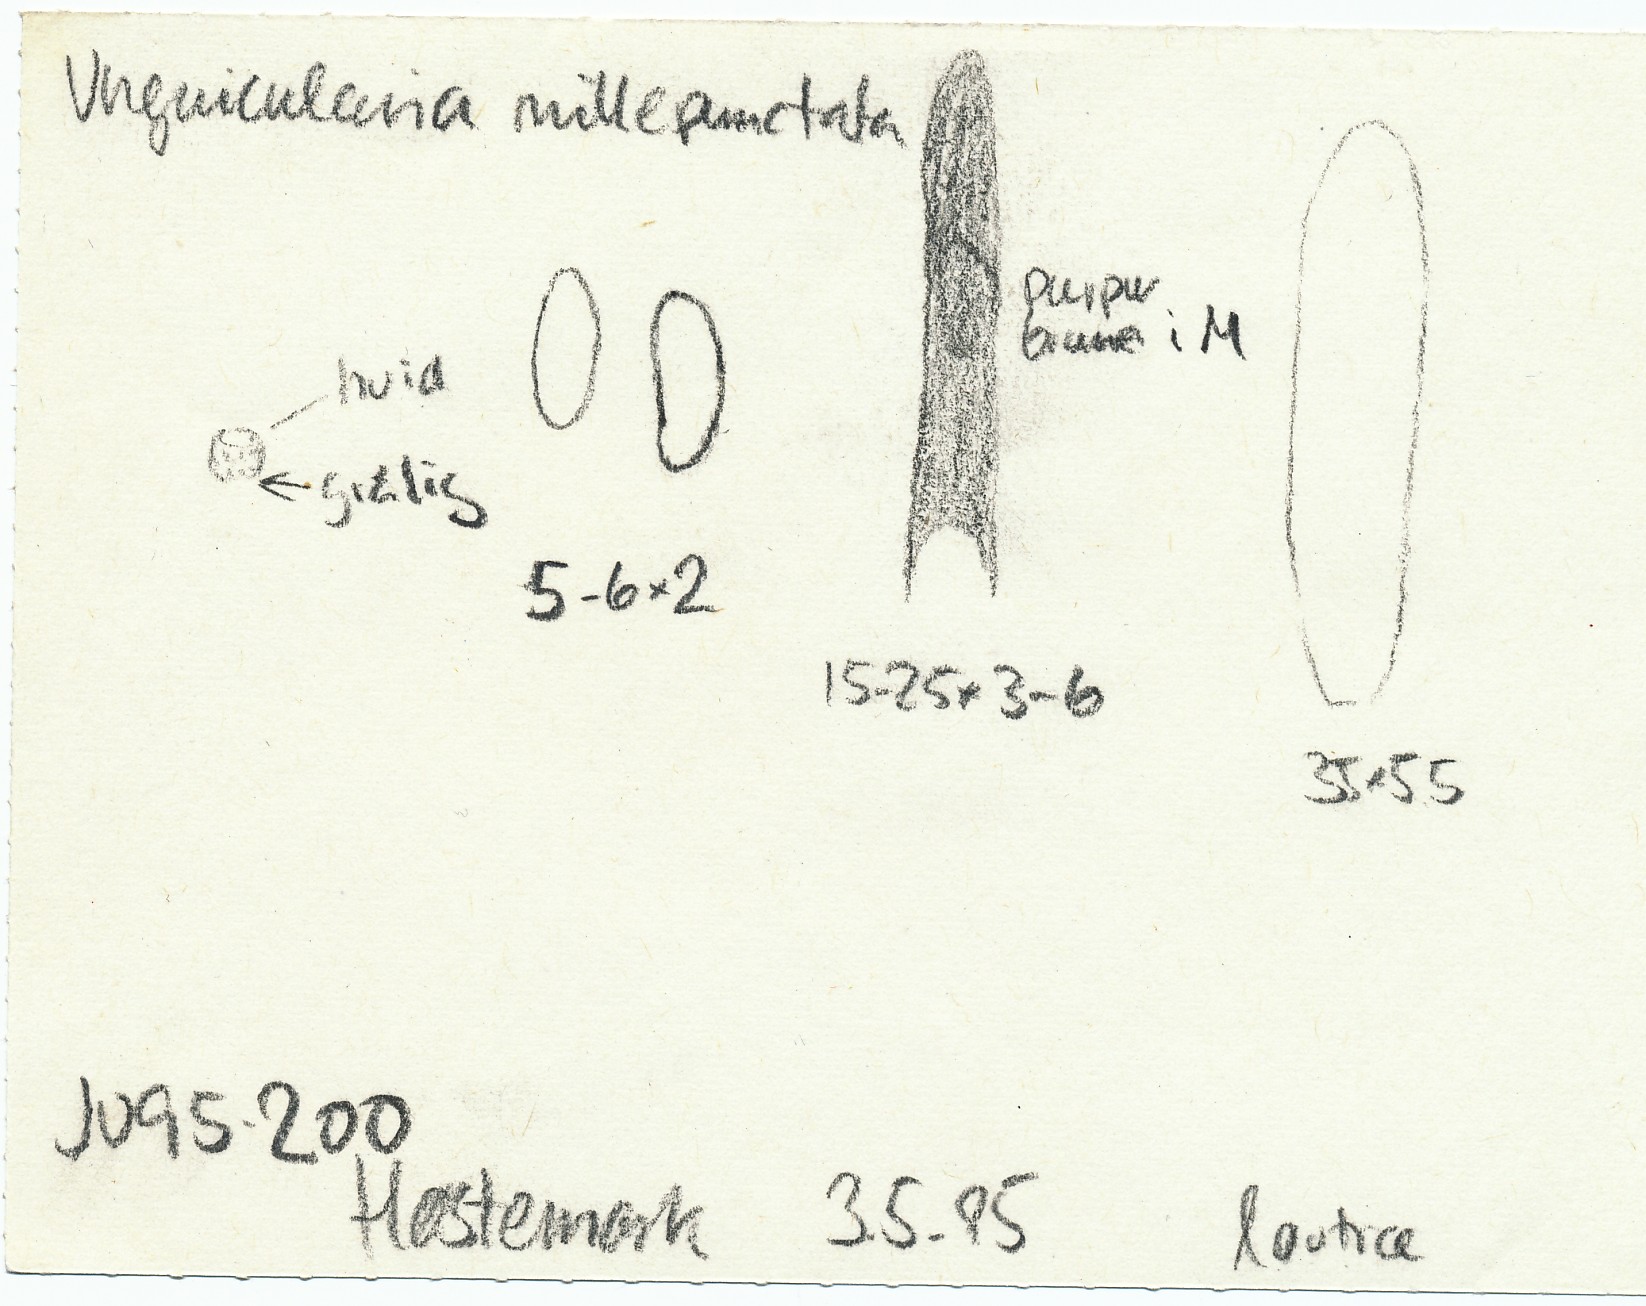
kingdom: Fungi
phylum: Ascomycota
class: Leotiomycetes
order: Helotiales
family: Hyaloscyphaceae
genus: Hyalopeziza
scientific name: Hyalopeziza millepunctata
